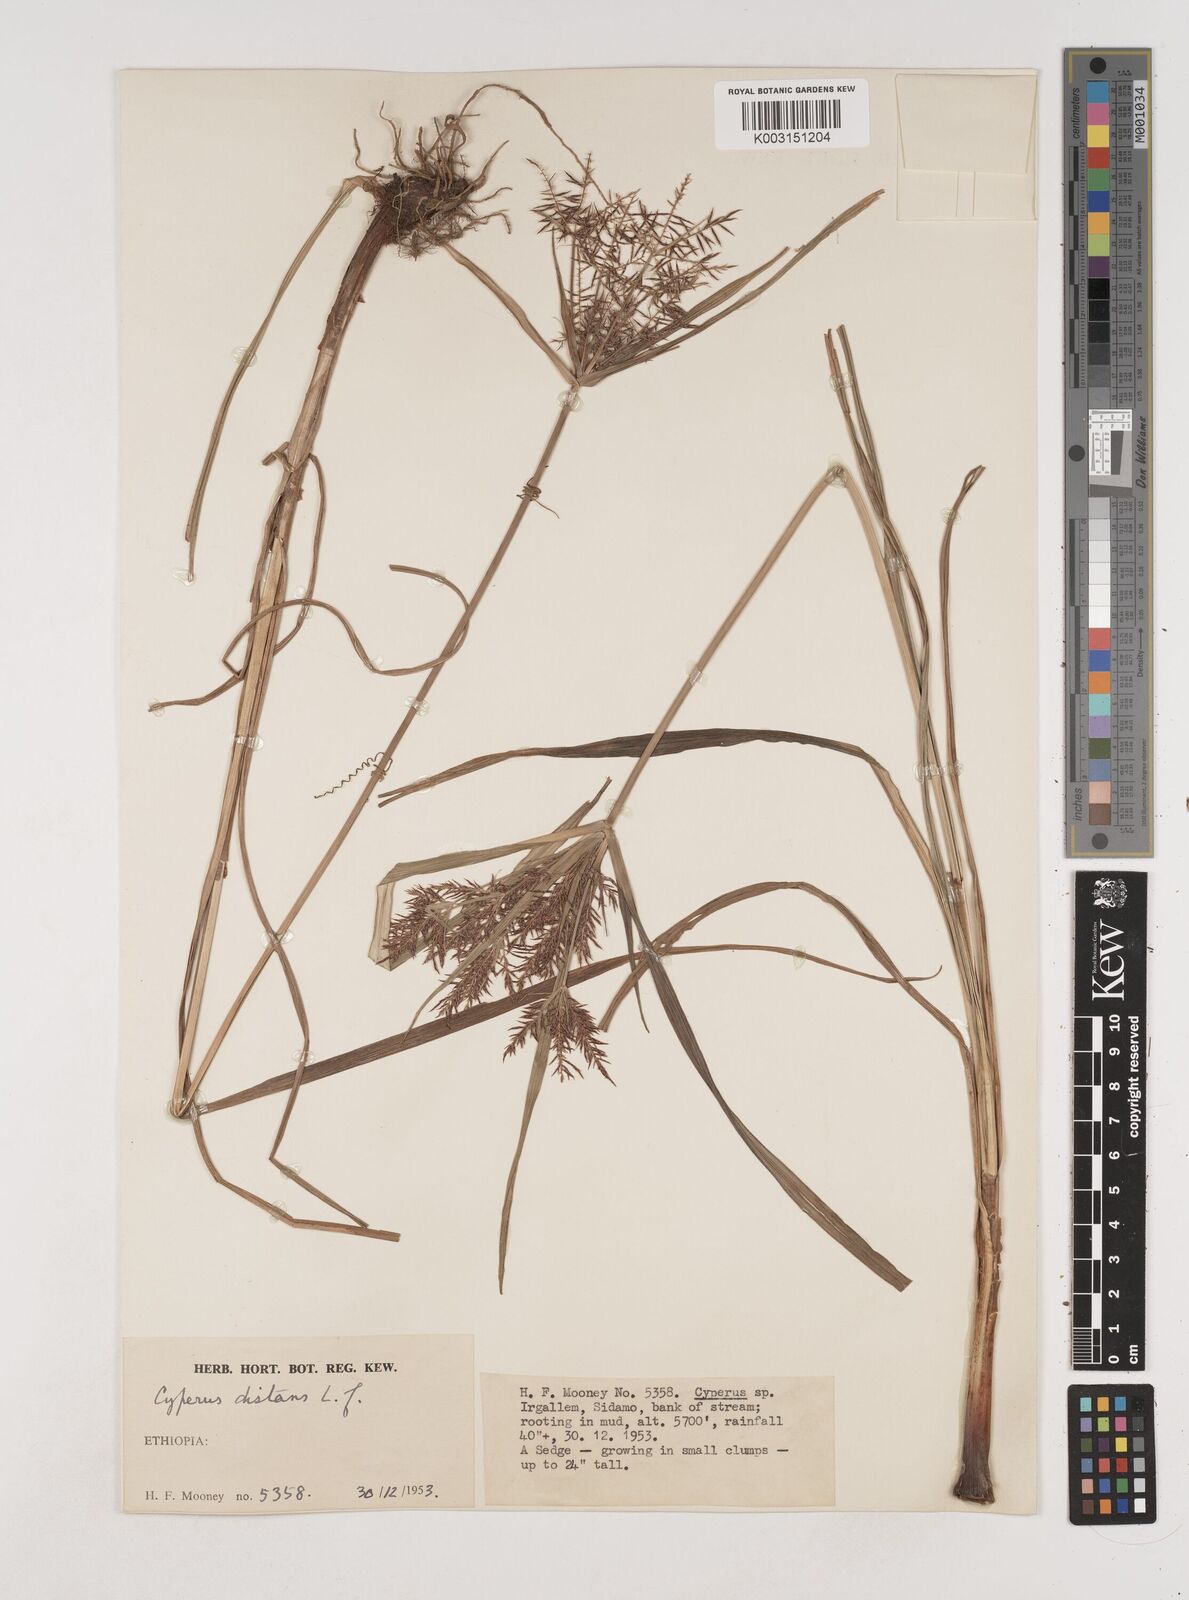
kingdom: Plantae
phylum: Tracheophyta
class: Liliopsida
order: Poales
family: Cyperaceae
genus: Cyperus
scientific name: Cyperus distans
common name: Slender cyperus
